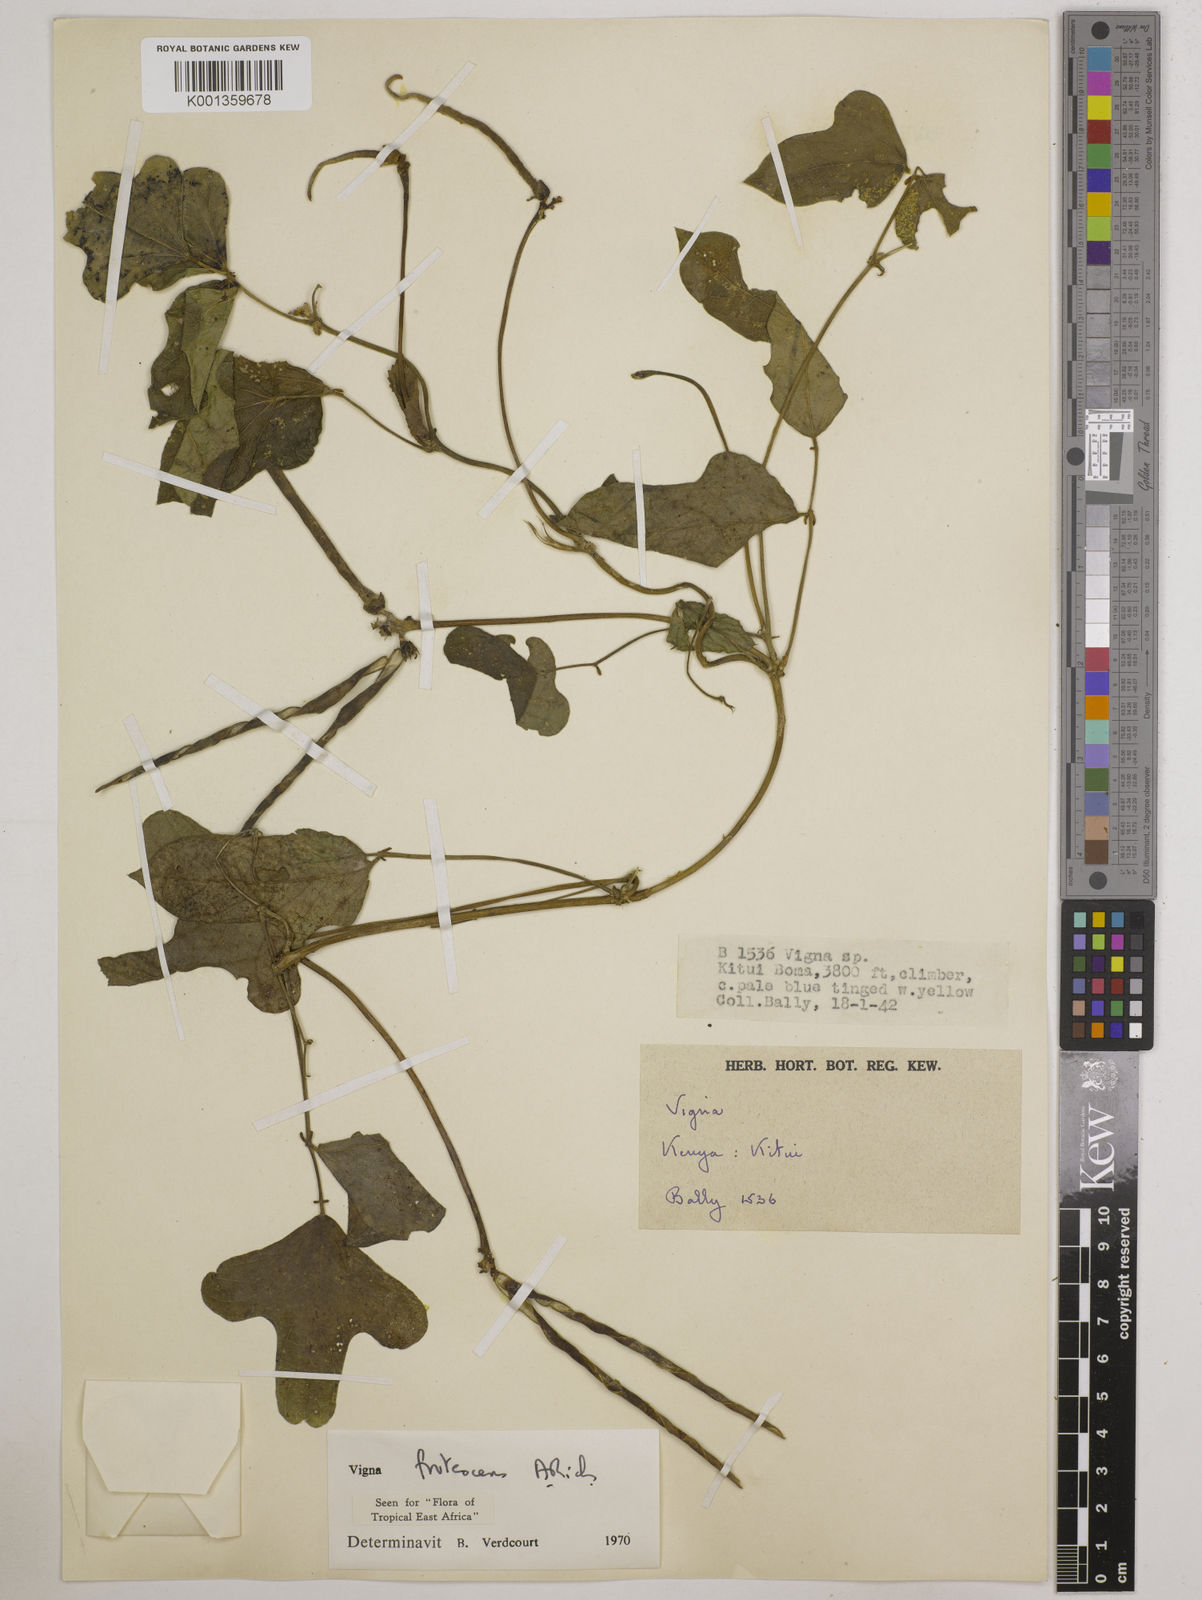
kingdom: Plantae
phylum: Tracheophyta
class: Magnoliopsida
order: Fabales
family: Fabaceae
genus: Vigna
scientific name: Vigna frutescens
